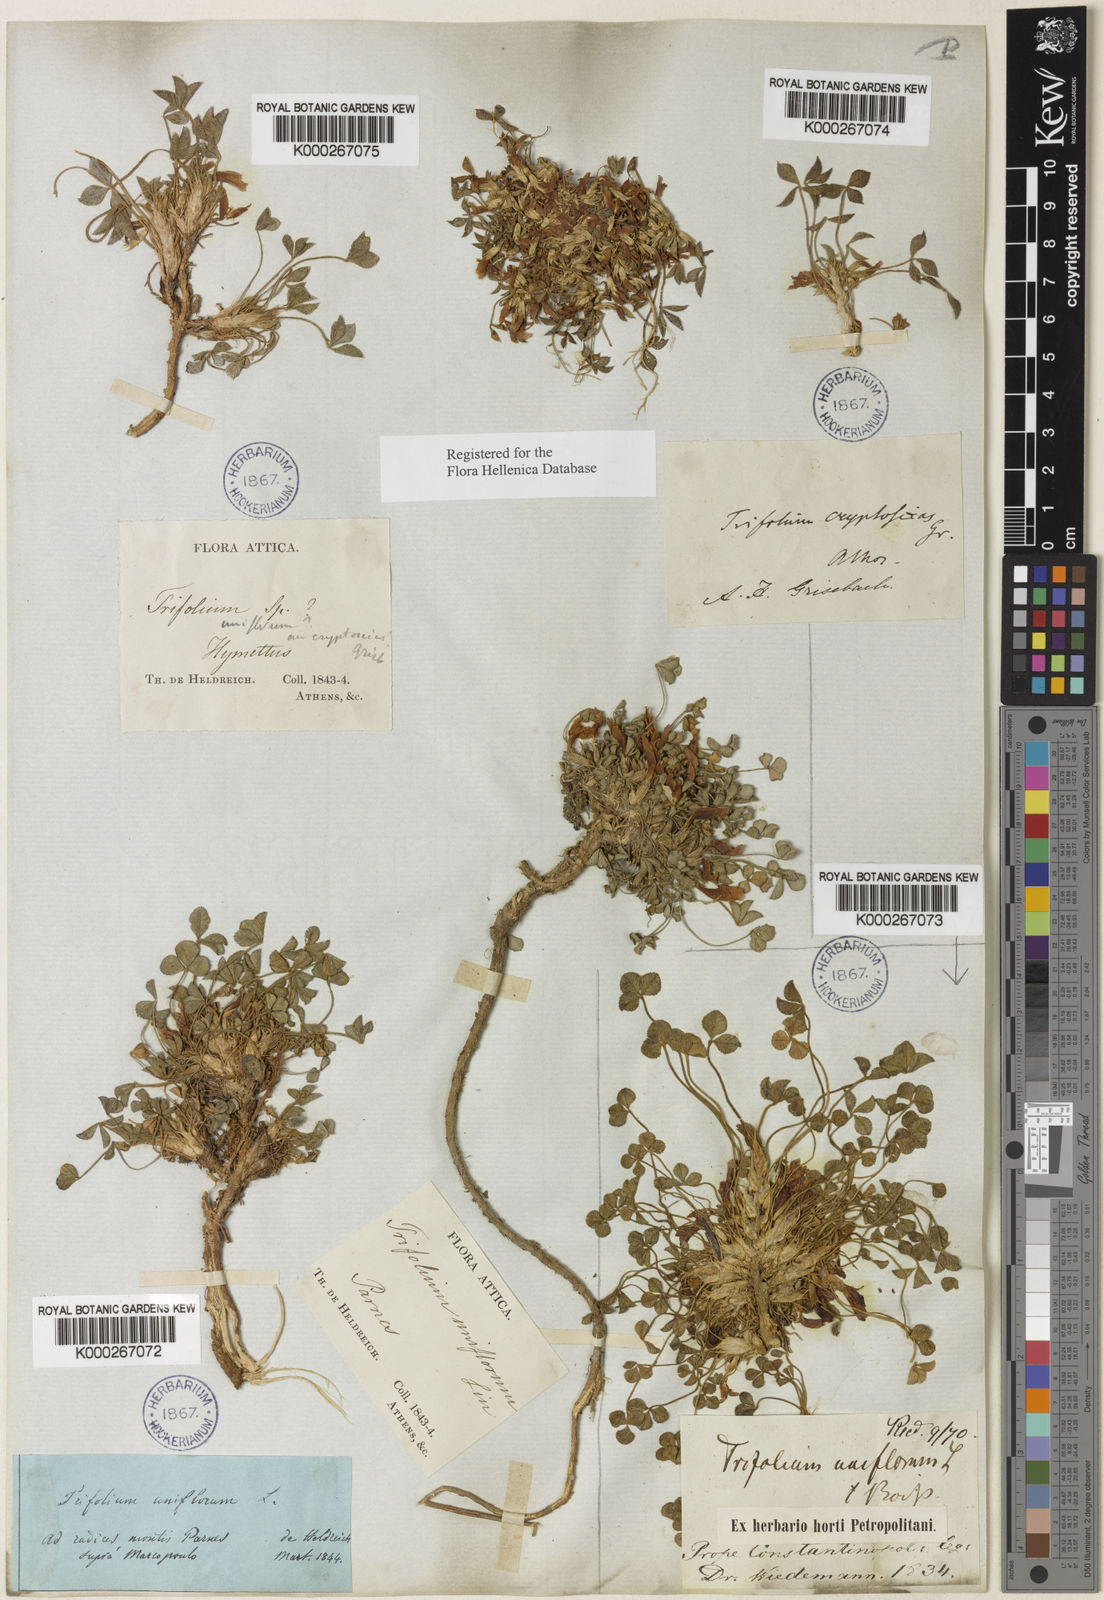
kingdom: Plantae
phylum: Tracheophyta
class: Magnoliopsida
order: Fabales
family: Fabaceae
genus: Trifolium
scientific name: Trifolium uniflorum
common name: One-flower clover
